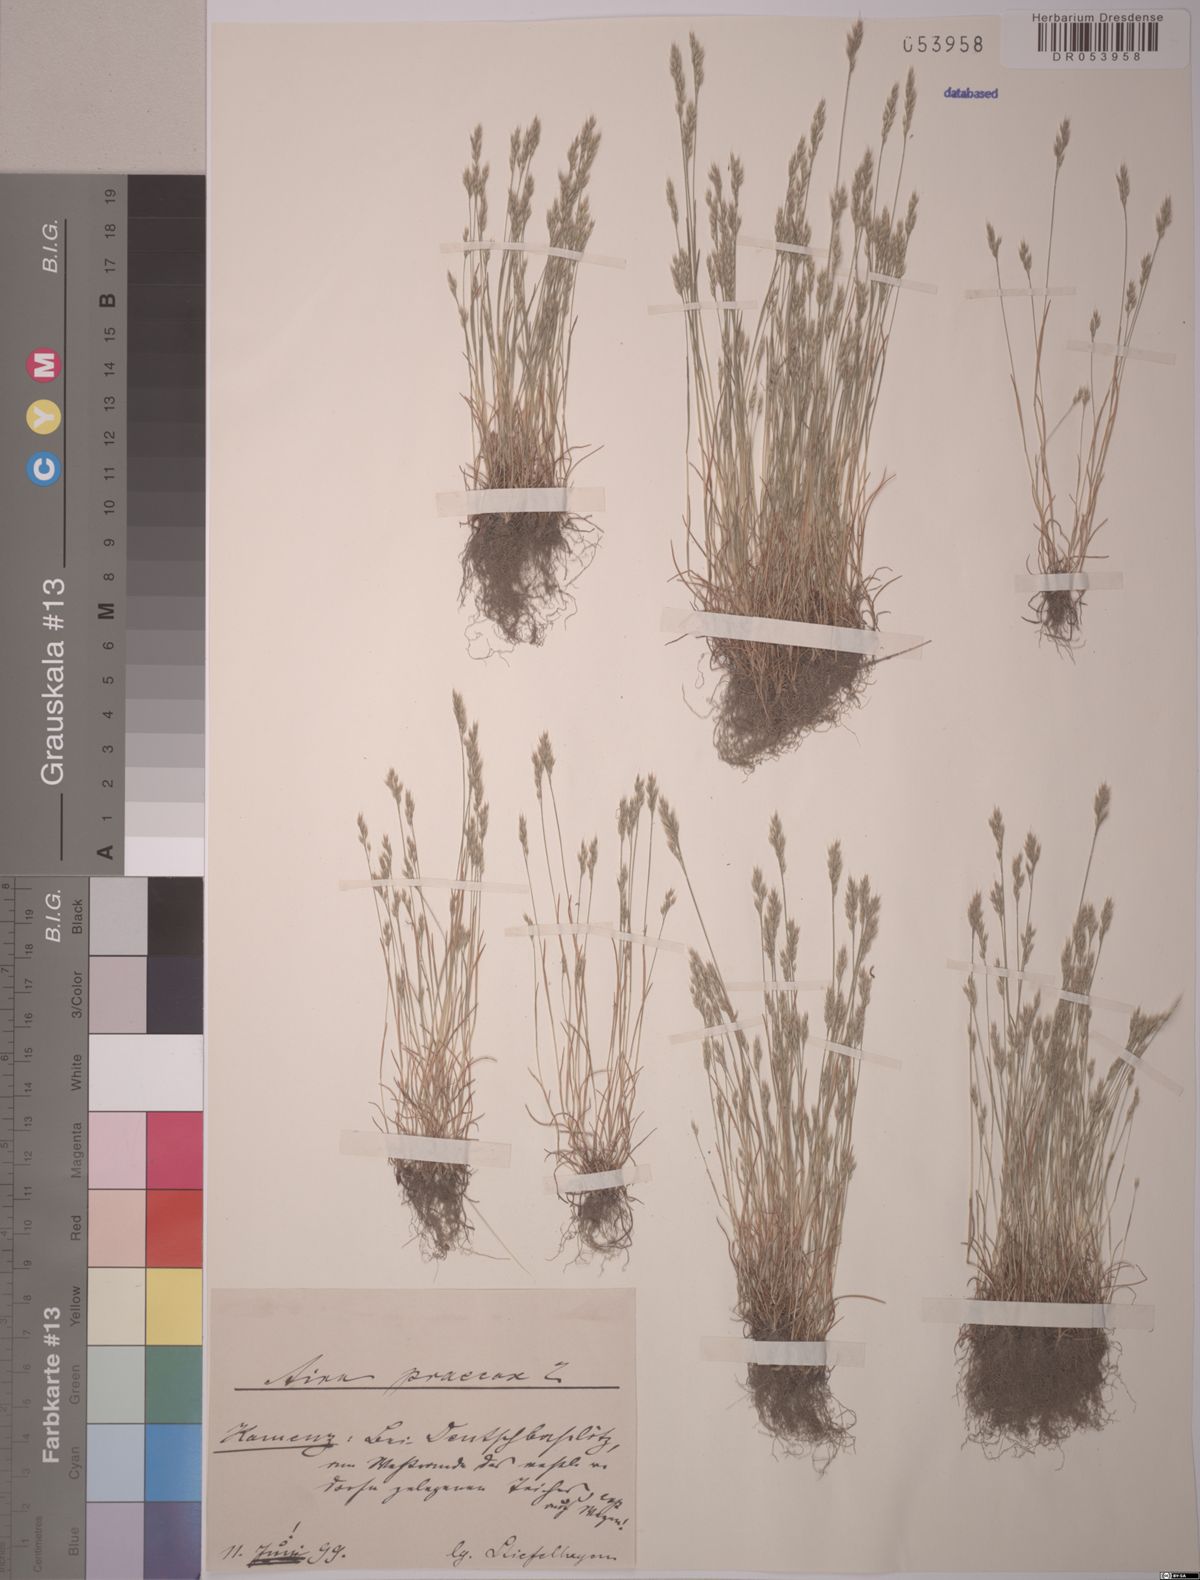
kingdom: Plantae
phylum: Tracheophyta
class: Liliopsida
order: Poales
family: Poaceae
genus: Aira
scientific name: Aira praecox
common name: Early hair-grass
